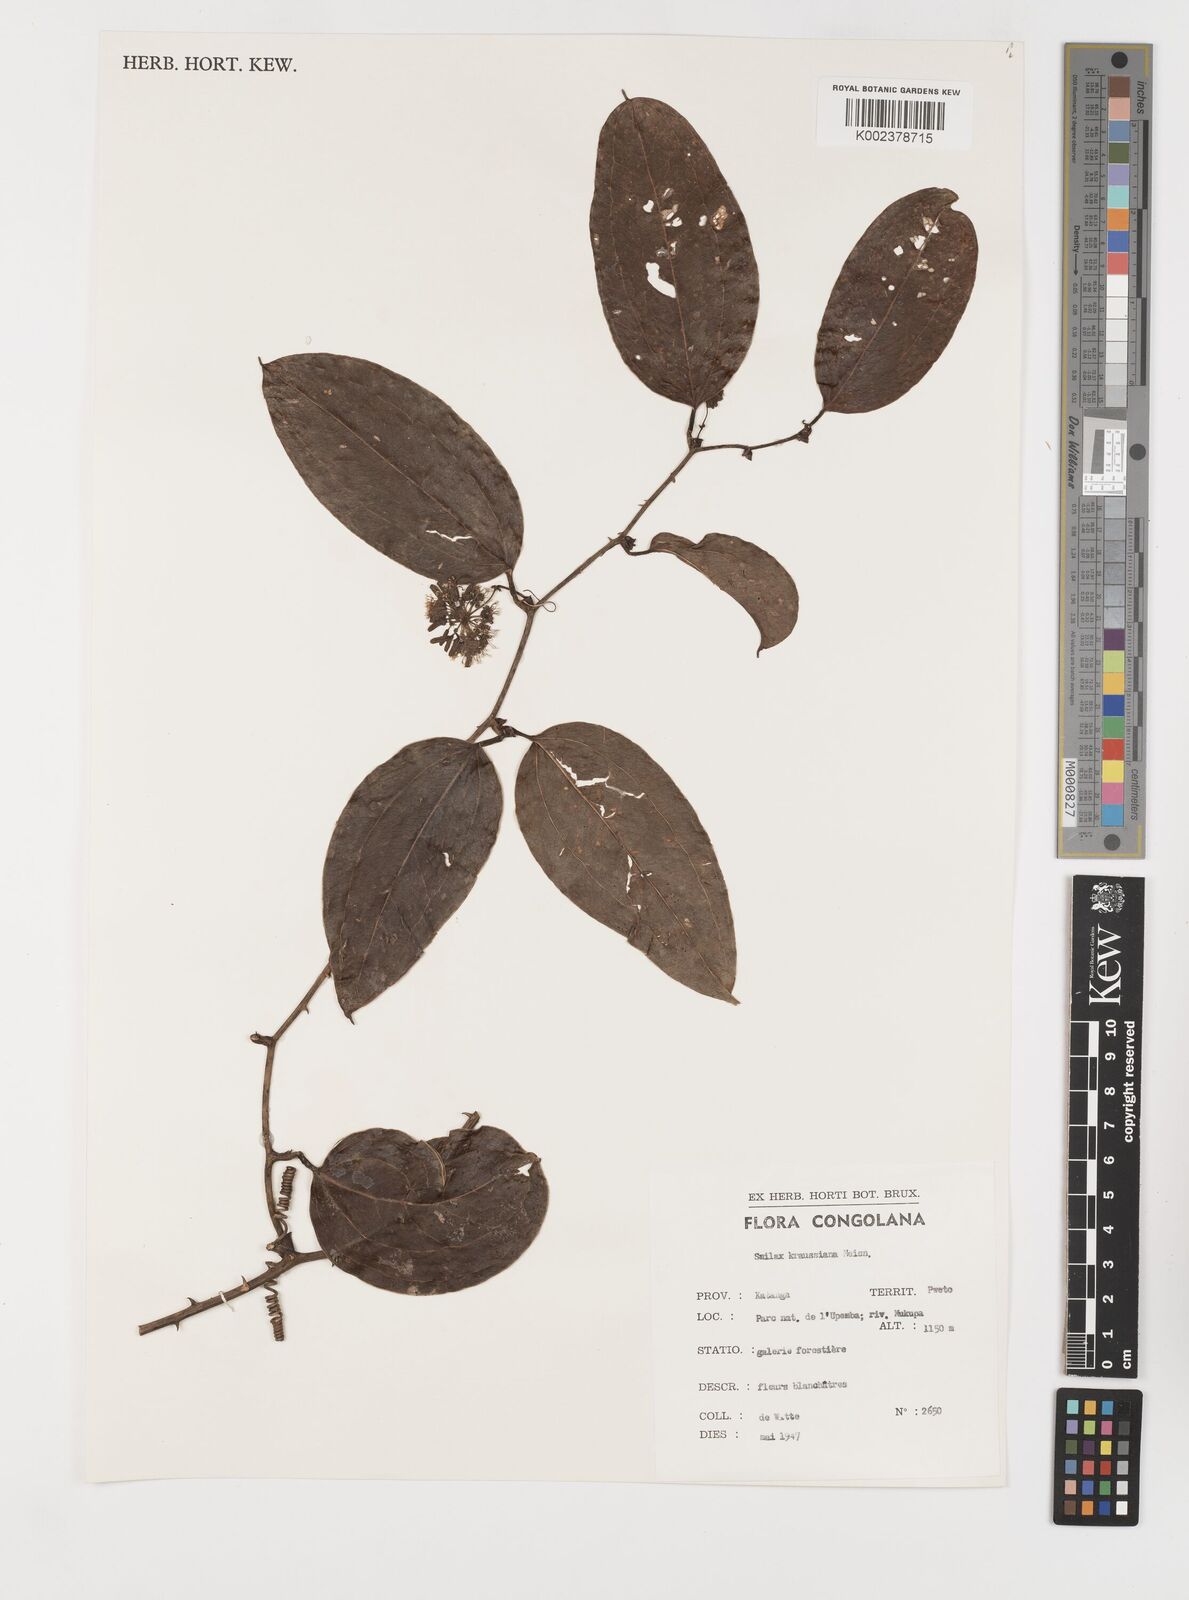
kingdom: Plantae
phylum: Tracheophyta
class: Liliopsida
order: Liliales
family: Smilacaceae
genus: Smilax
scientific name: Smilax anceps
